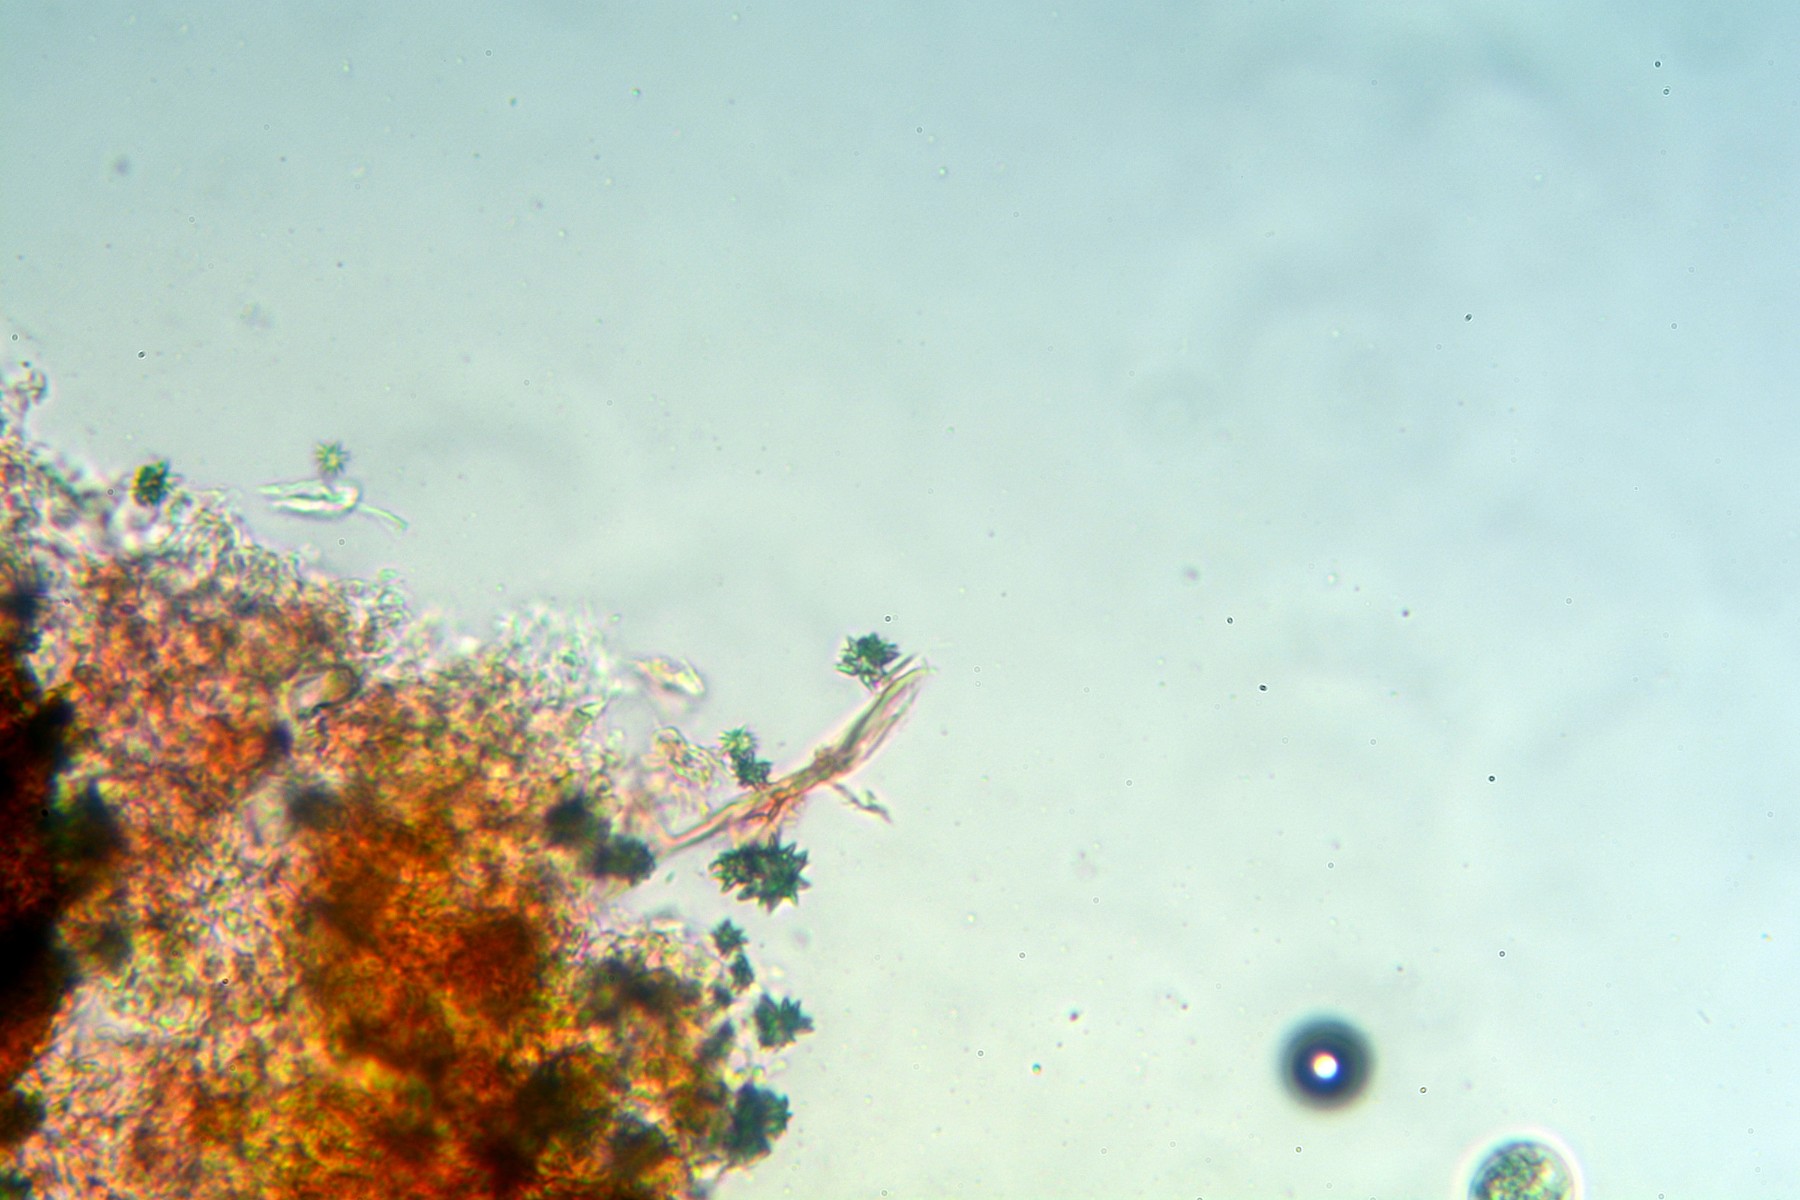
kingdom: Fungi
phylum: Basidiomycota
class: Agaricomycetes
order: Hymenochaetales
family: Rickenellaceae
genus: Resinicium
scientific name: Resinicium bicolor
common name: almindelig vokstand
